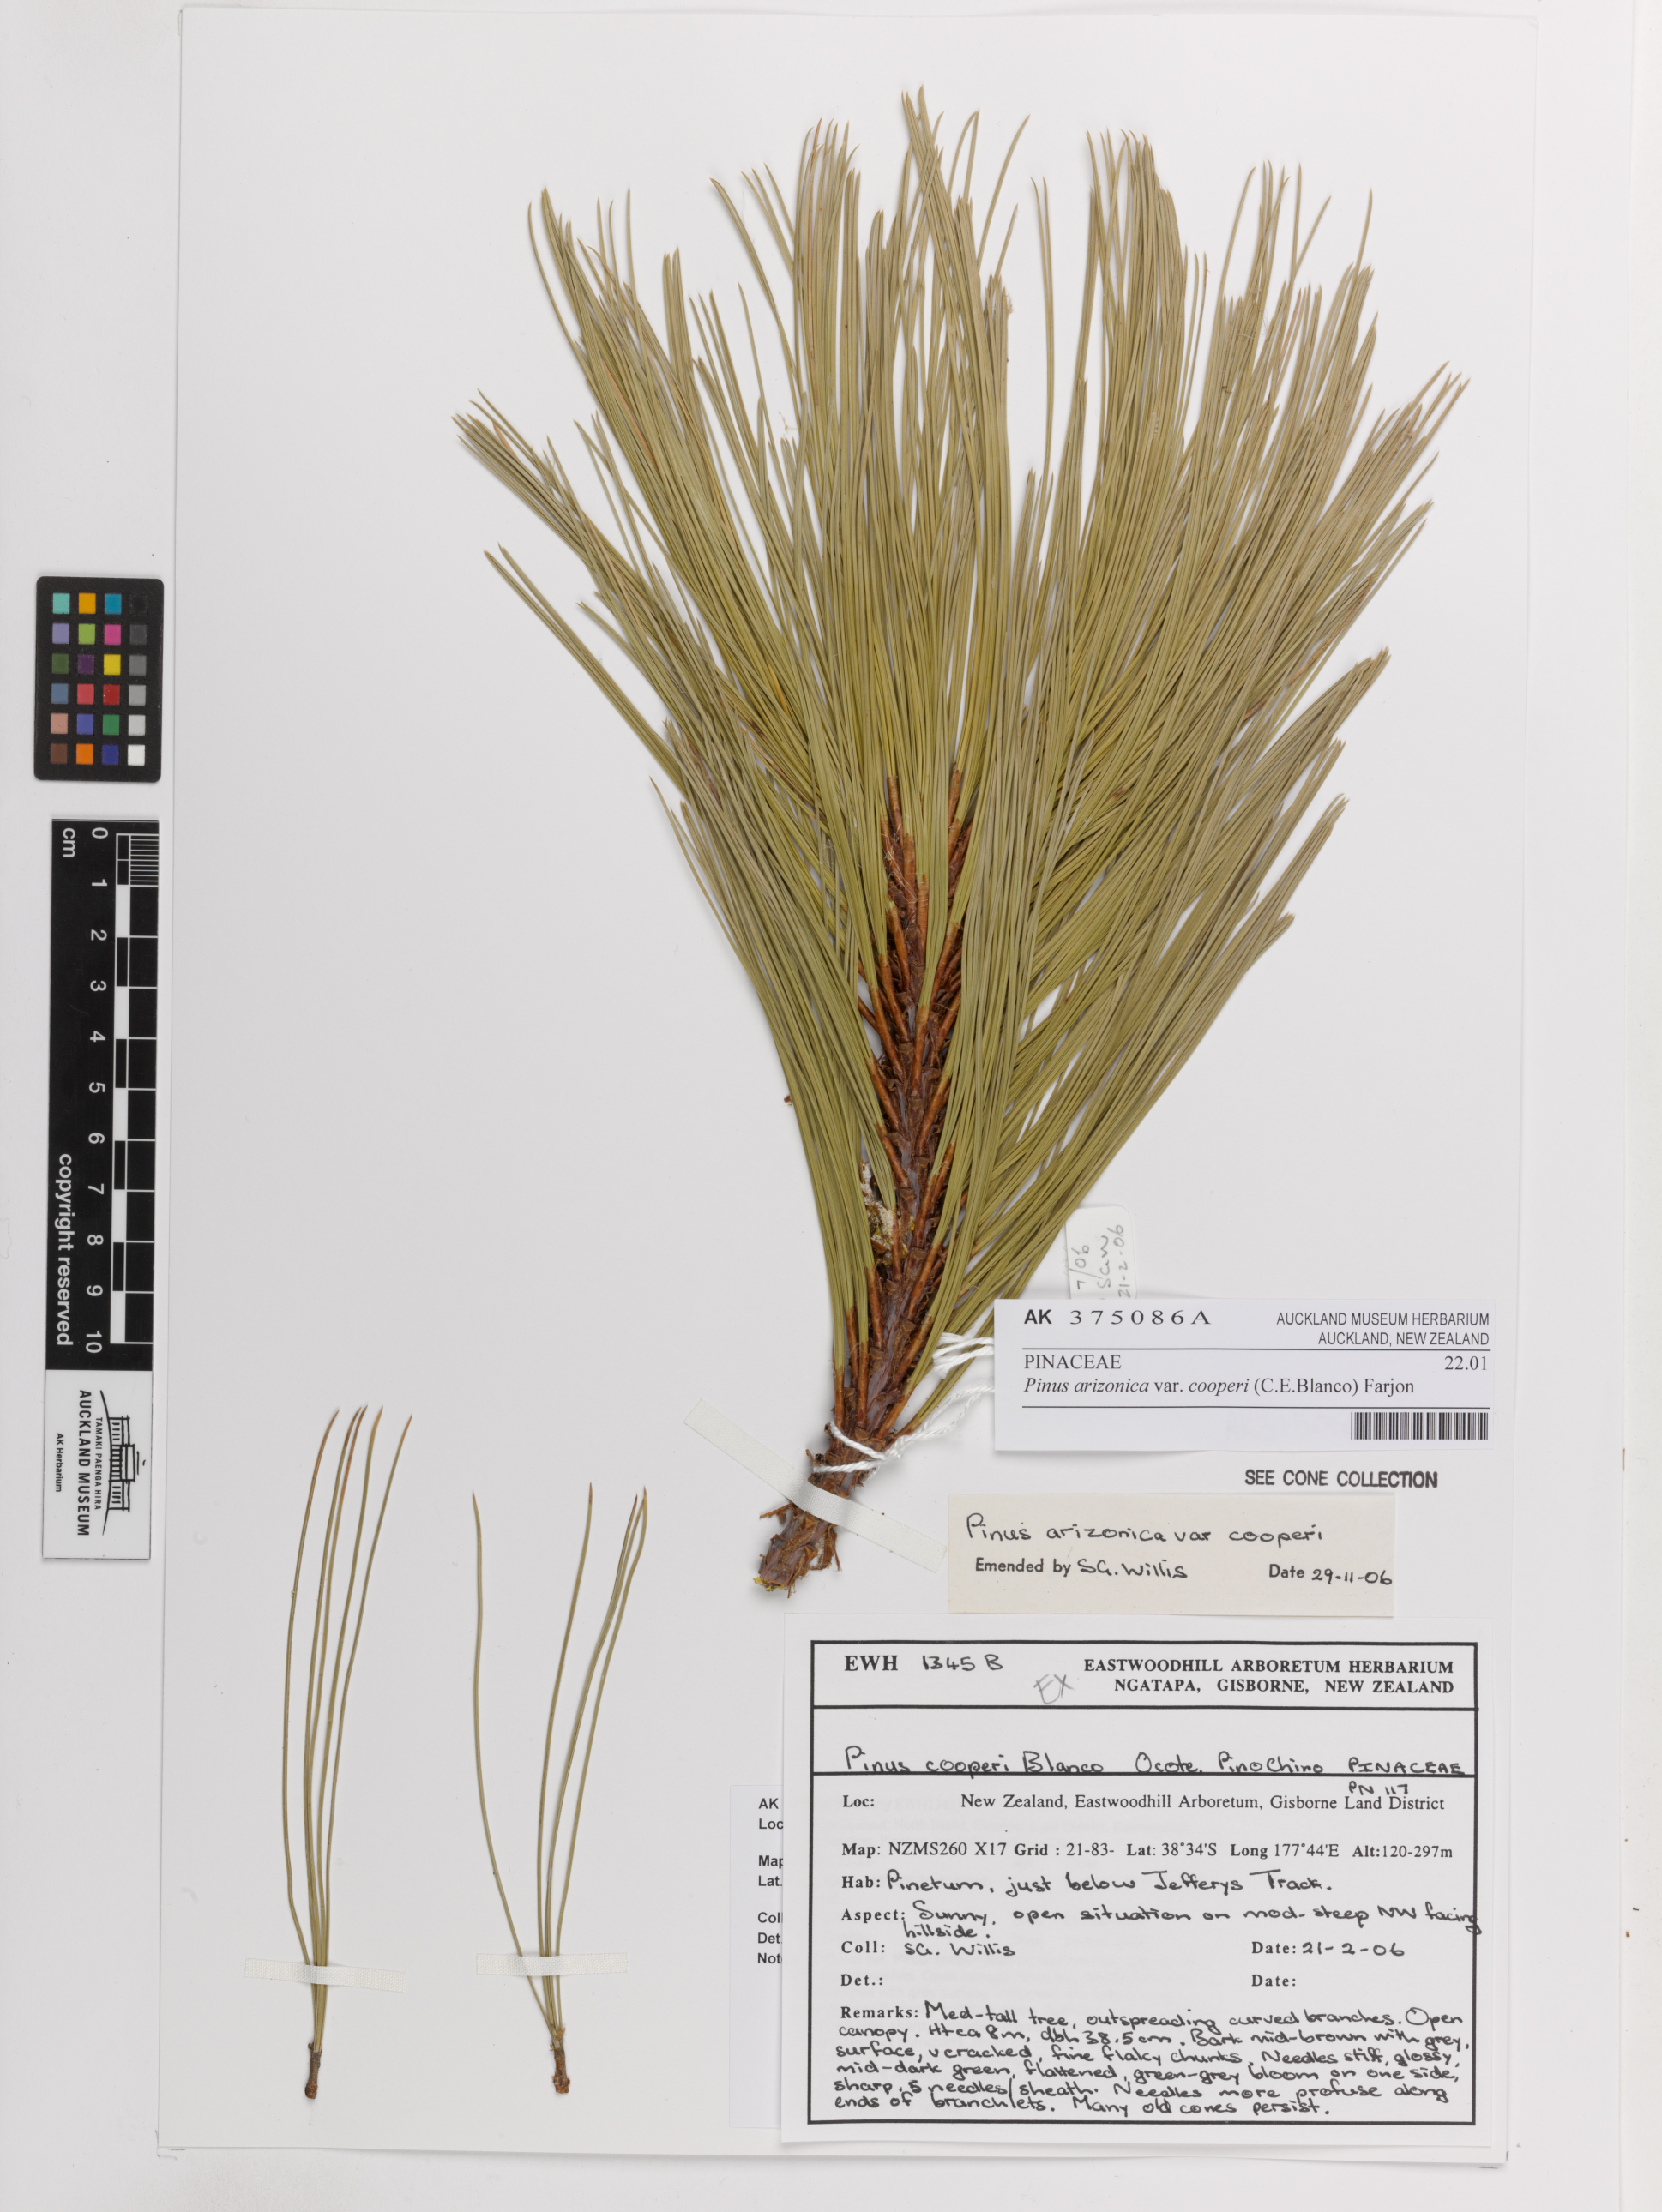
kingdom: Plantae
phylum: Tracheophyta
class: Pinopsida
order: Pinales
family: Pinaceae
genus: Pinus
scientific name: Pinus arizonica
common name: Arizona pine
